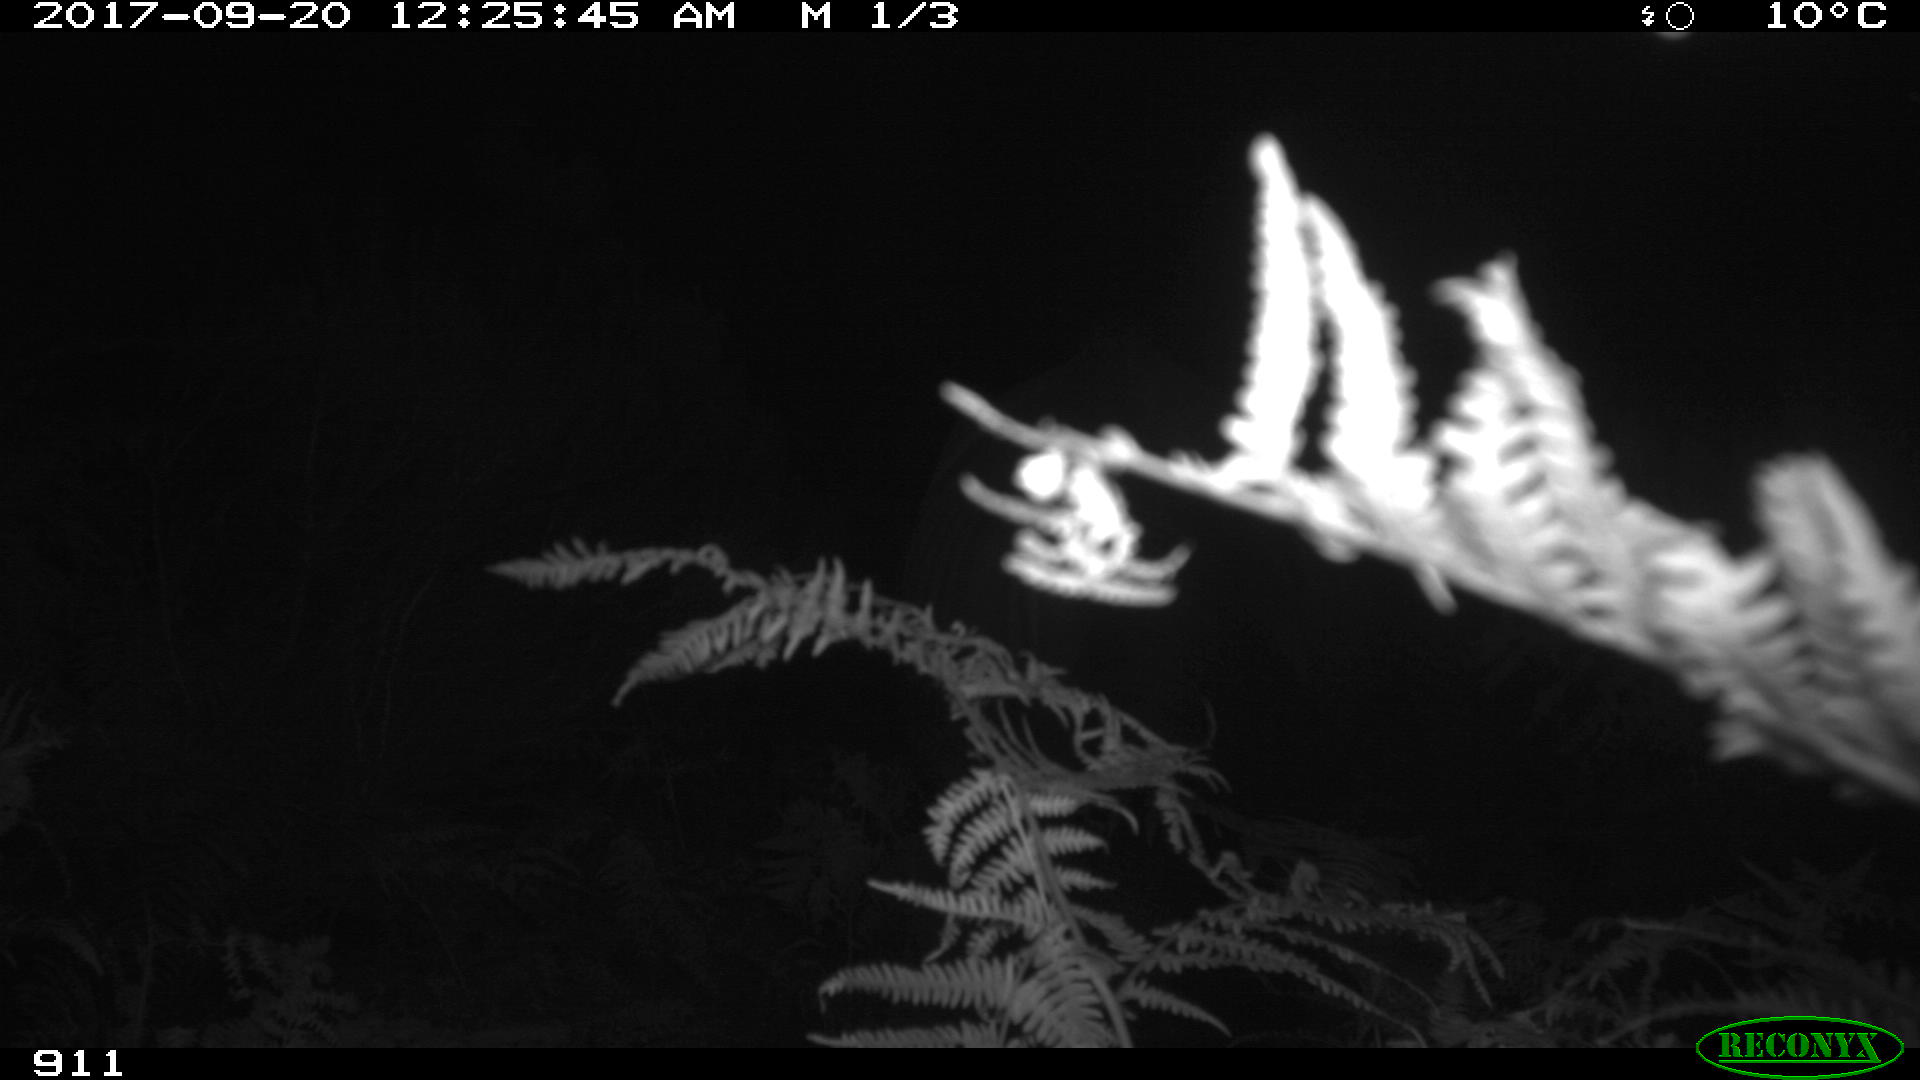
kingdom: Animalia
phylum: Chordata
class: Mammalia
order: Perissodactyla
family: Equidae
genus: Equus
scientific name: Equus caballus
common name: Horse
